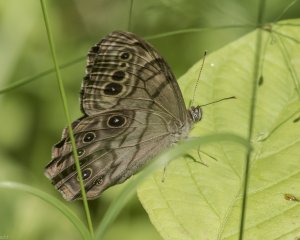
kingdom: Animalia
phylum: Arthropoda
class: Insecta
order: Lepidoptera
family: Nymphalidae
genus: Lethe
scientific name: Lethe anthedon
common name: Northern Pearly-Eye
